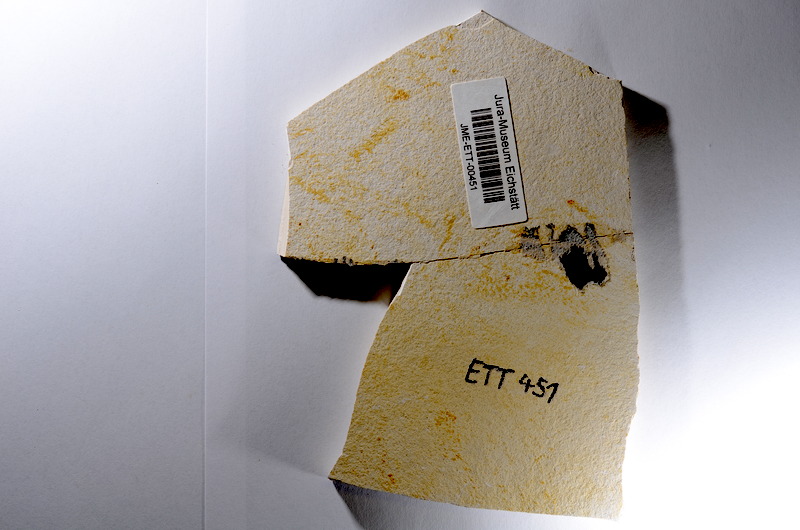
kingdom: Animalia
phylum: Chordata
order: Salmoniformes
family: Orthogonikleithridae
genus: Orthogonikleithrus
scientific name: Orthogonikleithrus hoelli
